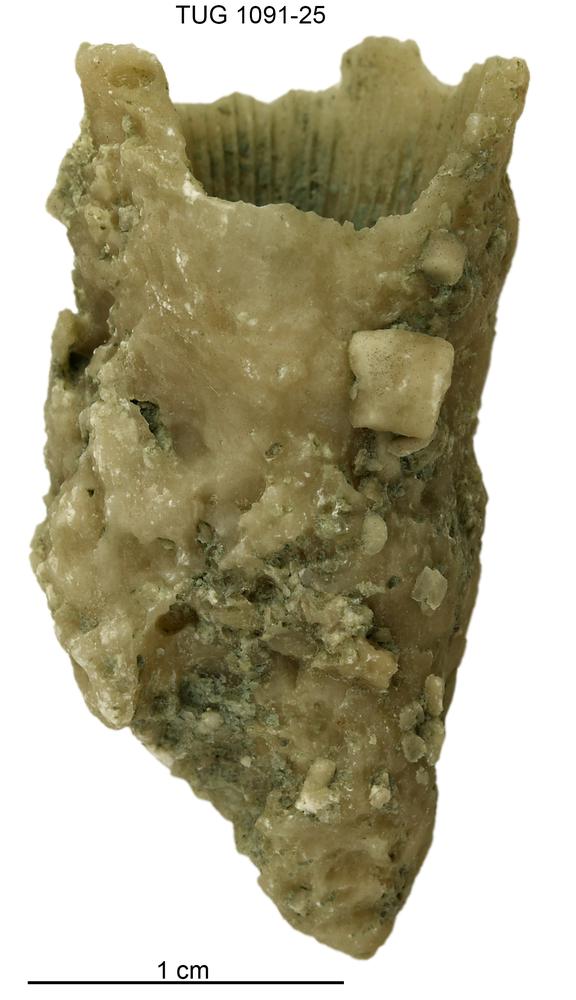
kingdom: Animalia
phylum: Cnidaria
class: Anthozoa
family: Lykophyllidae
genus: Holophragma
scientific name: Holophragma
